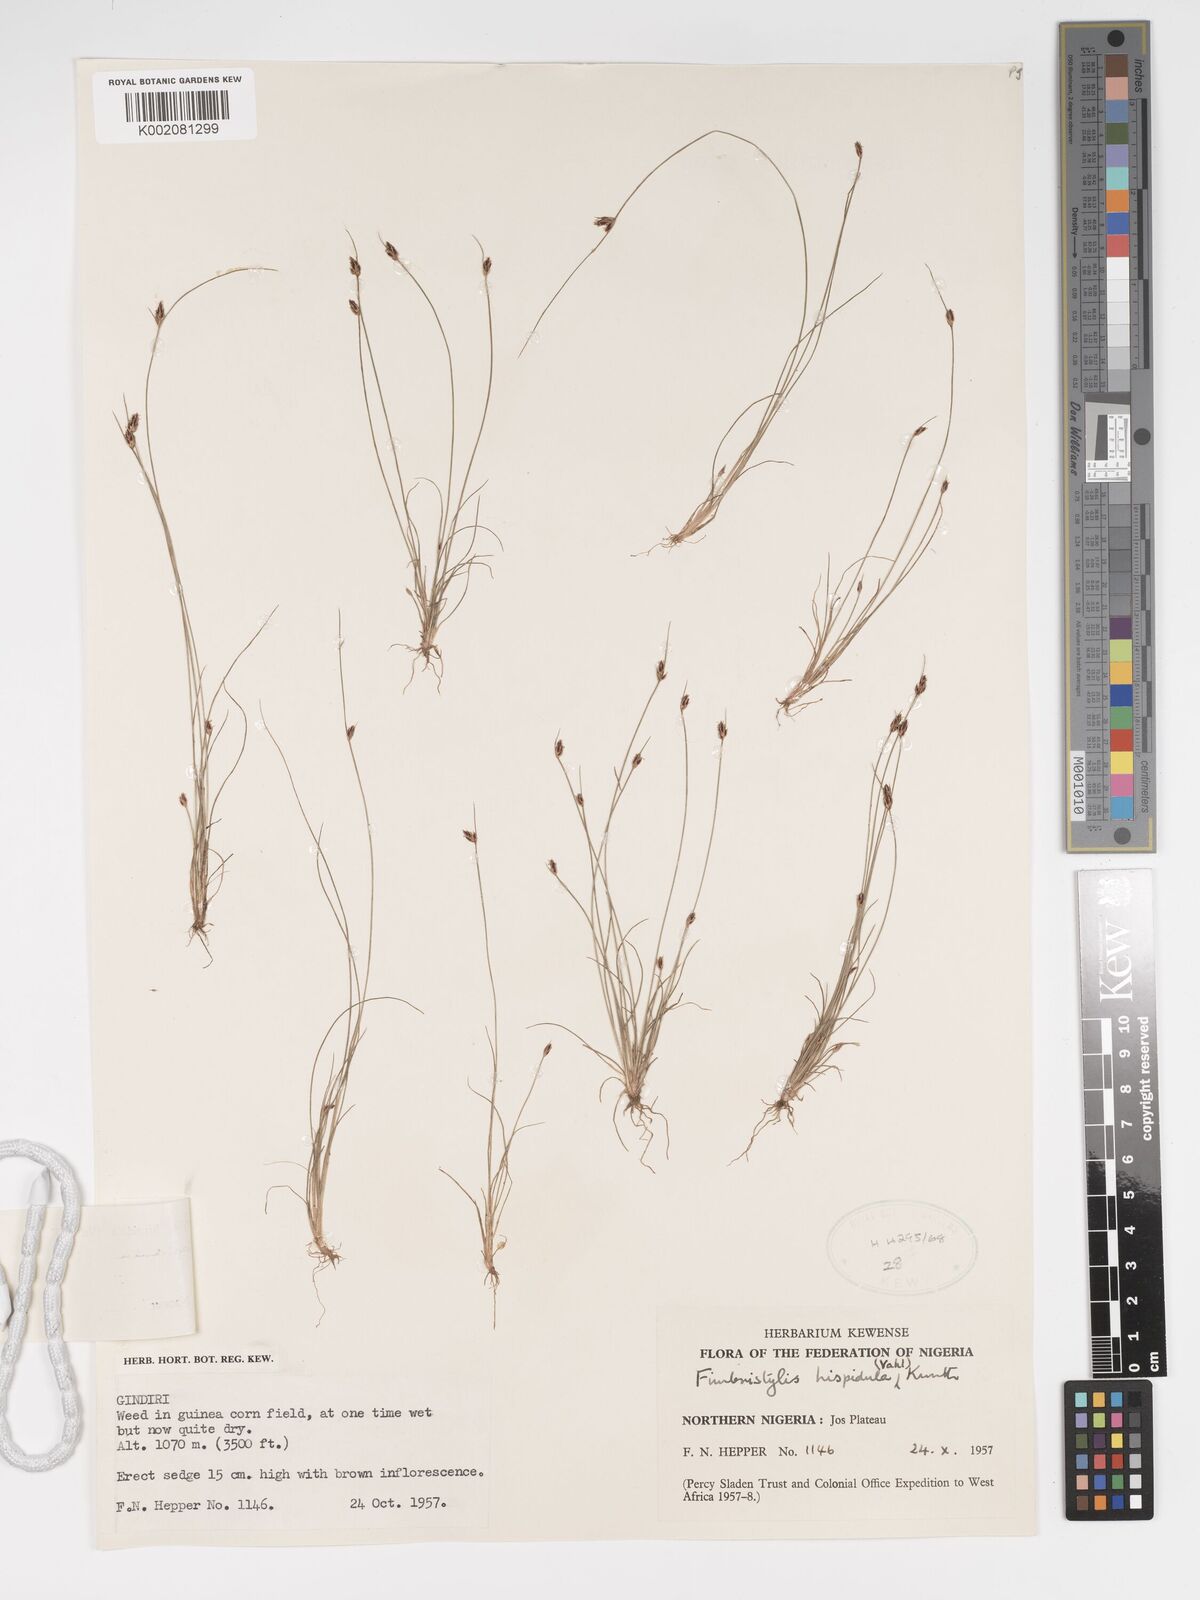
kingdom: Plantae
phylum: Tracheophyta
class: Liliopsida
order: Poales
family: Cyperaceae
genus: Bulbostylis
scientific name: Bulbostylis hispidula
